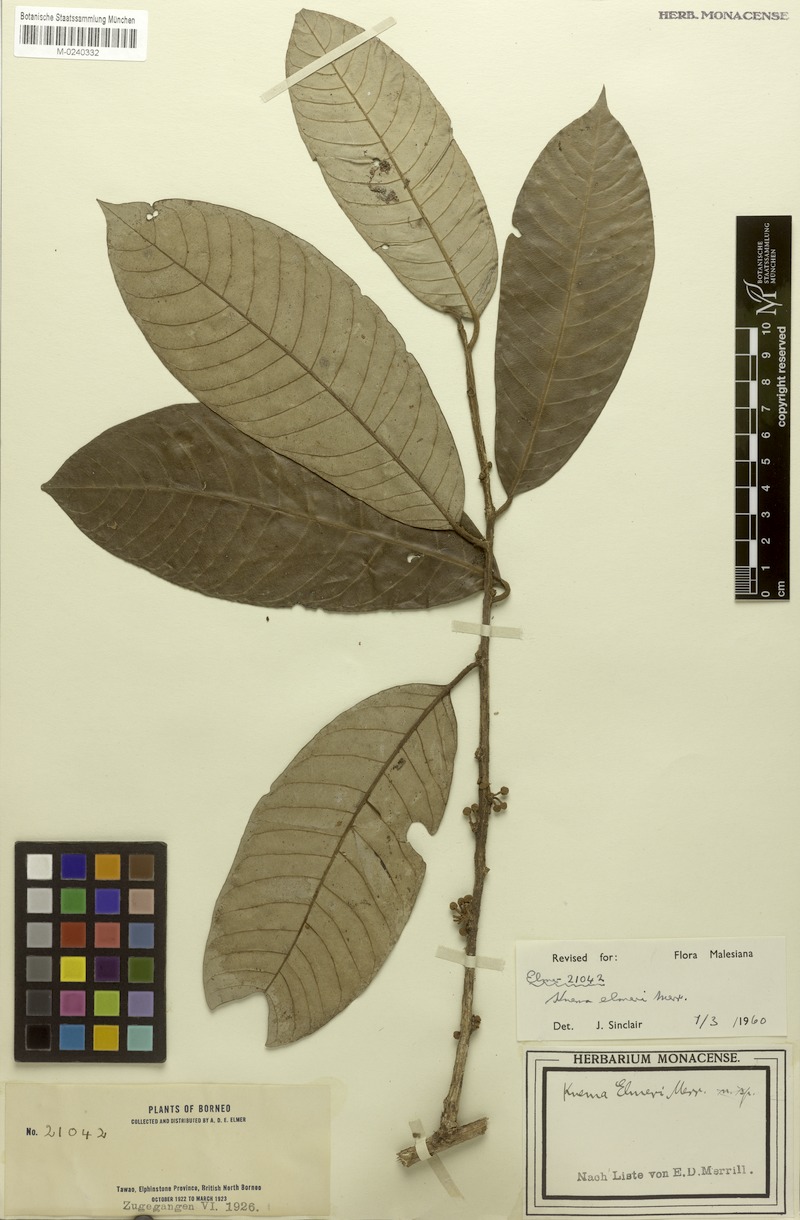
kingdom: Plantae
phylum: Tracheophyta
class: Magnoliopsida
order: Magnoliales
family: Myristicaceae
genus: Knema
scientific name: Knema elmeri
